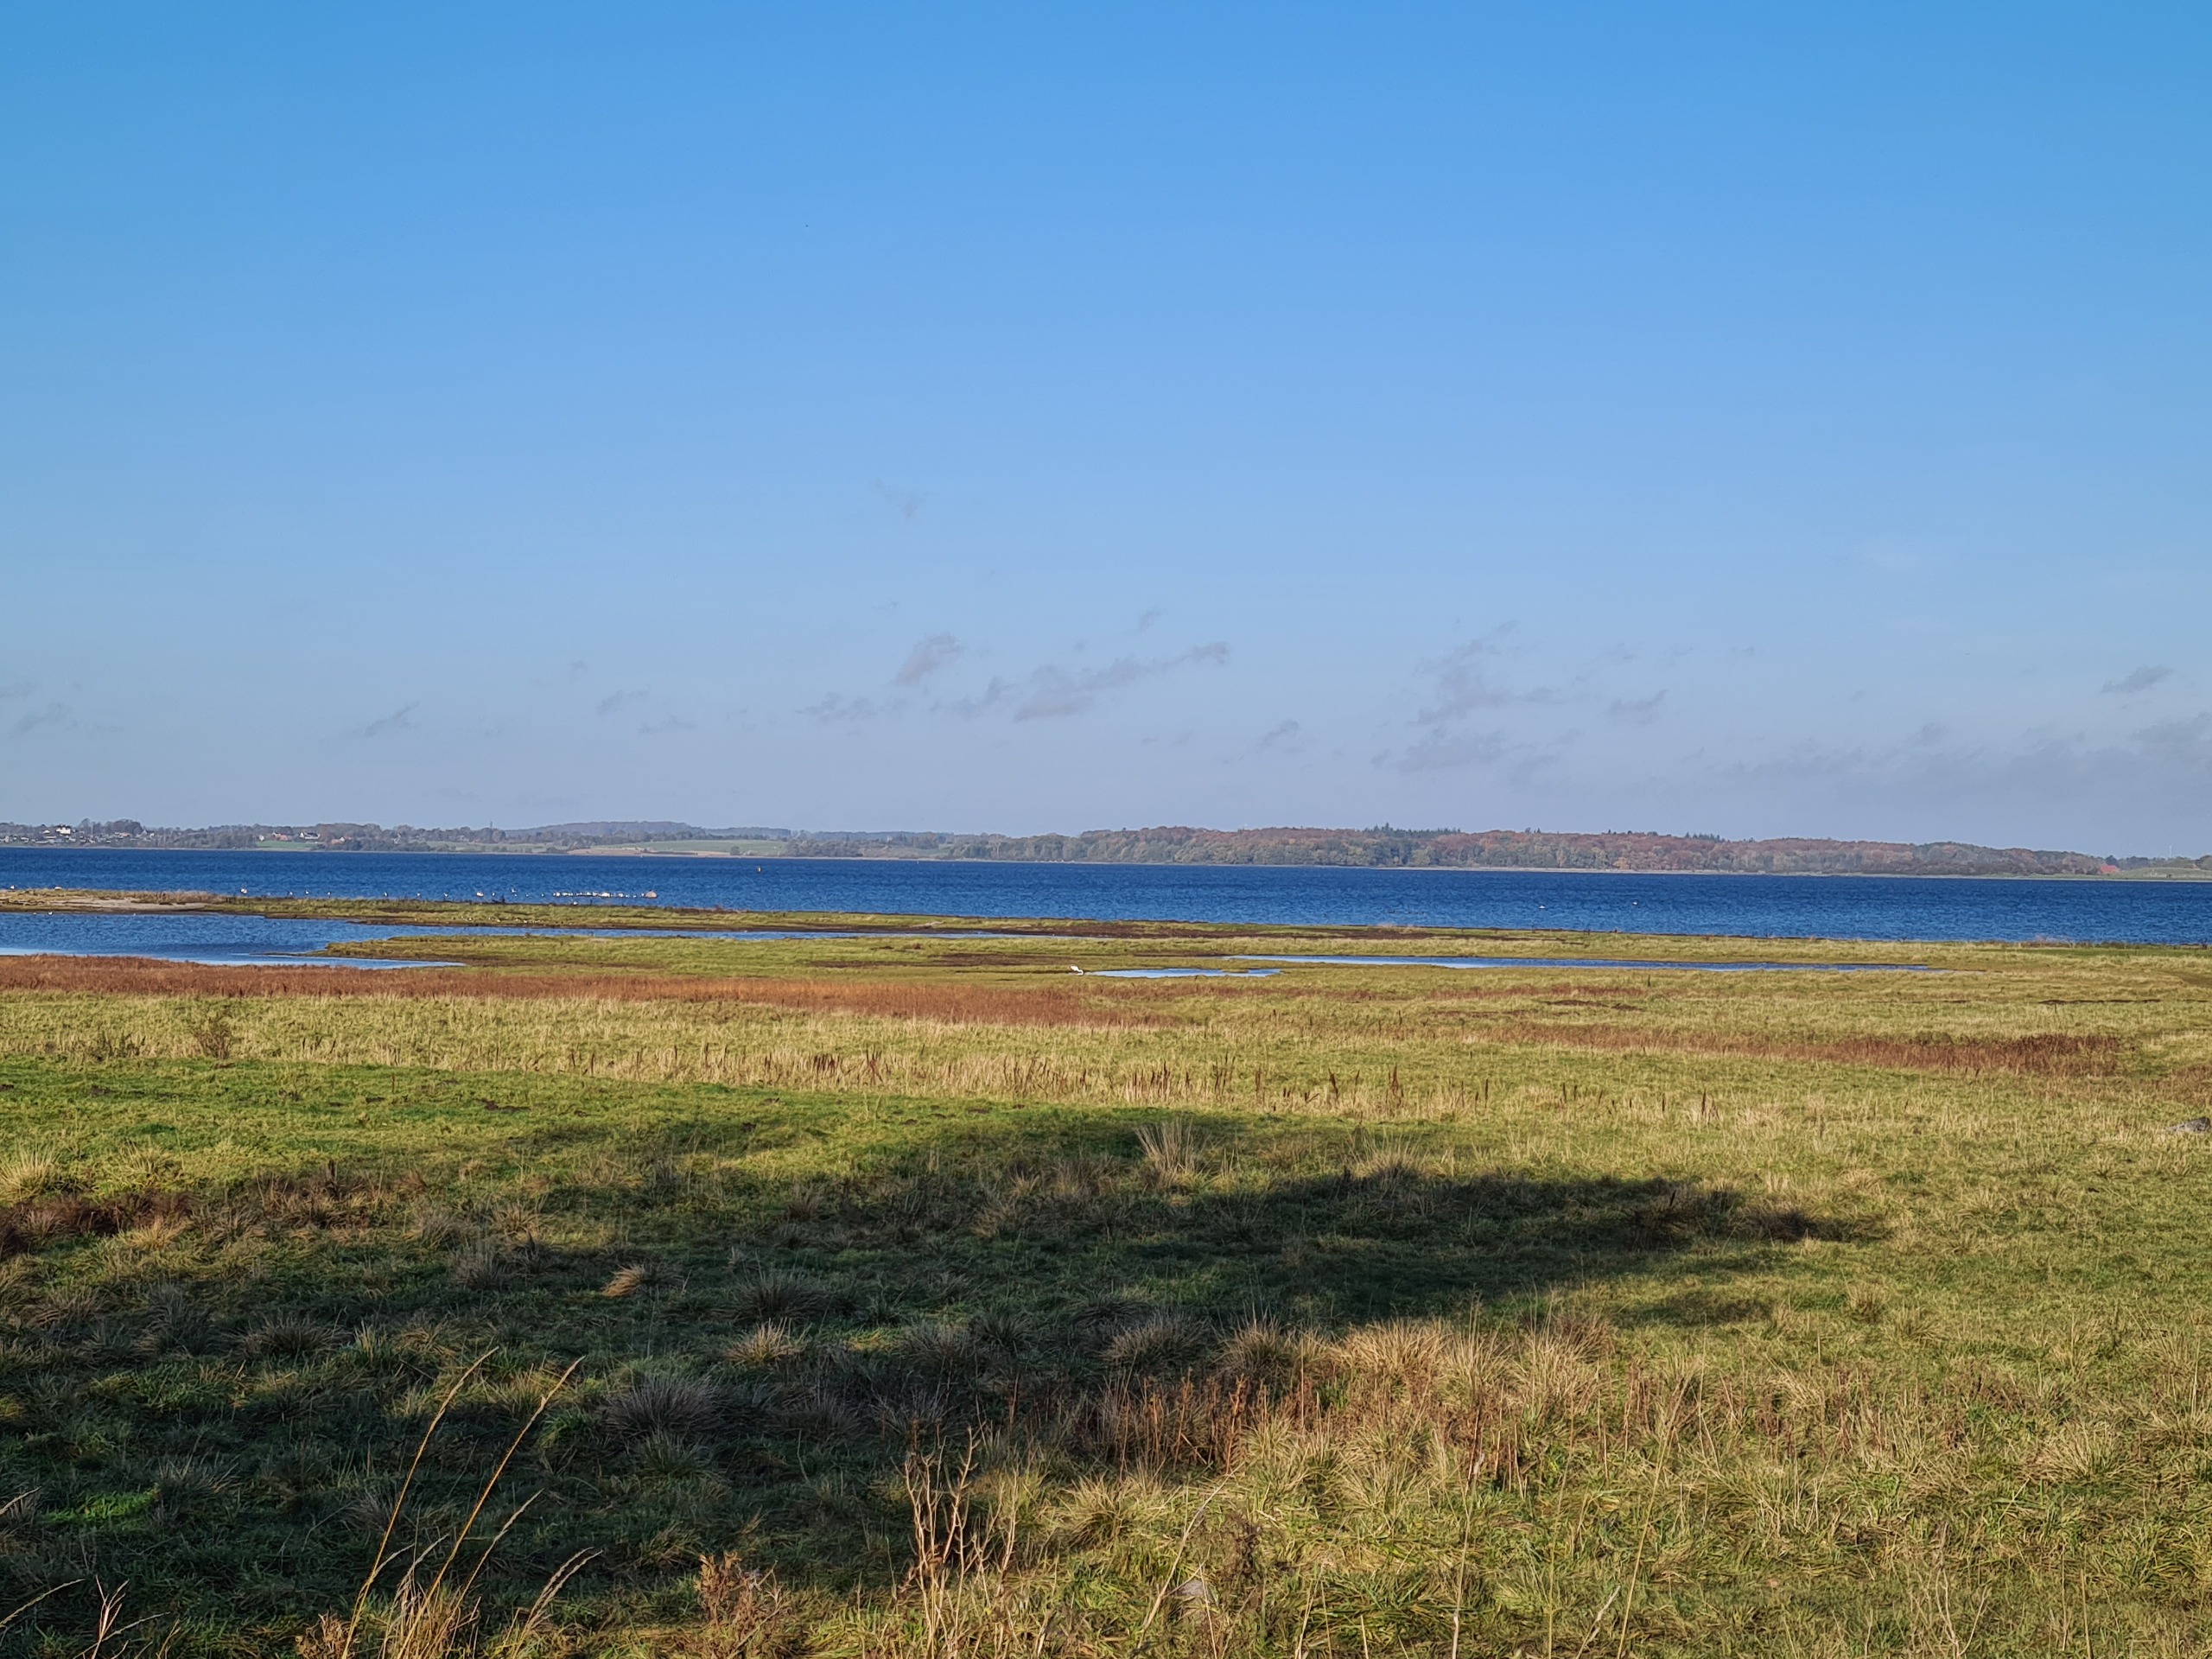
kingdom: Animalia
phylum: Chordata
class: Aves
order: Pelecaniformes
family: Ardeidae
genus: Ardea
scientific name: Ardea alba
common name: Sølvhejre
